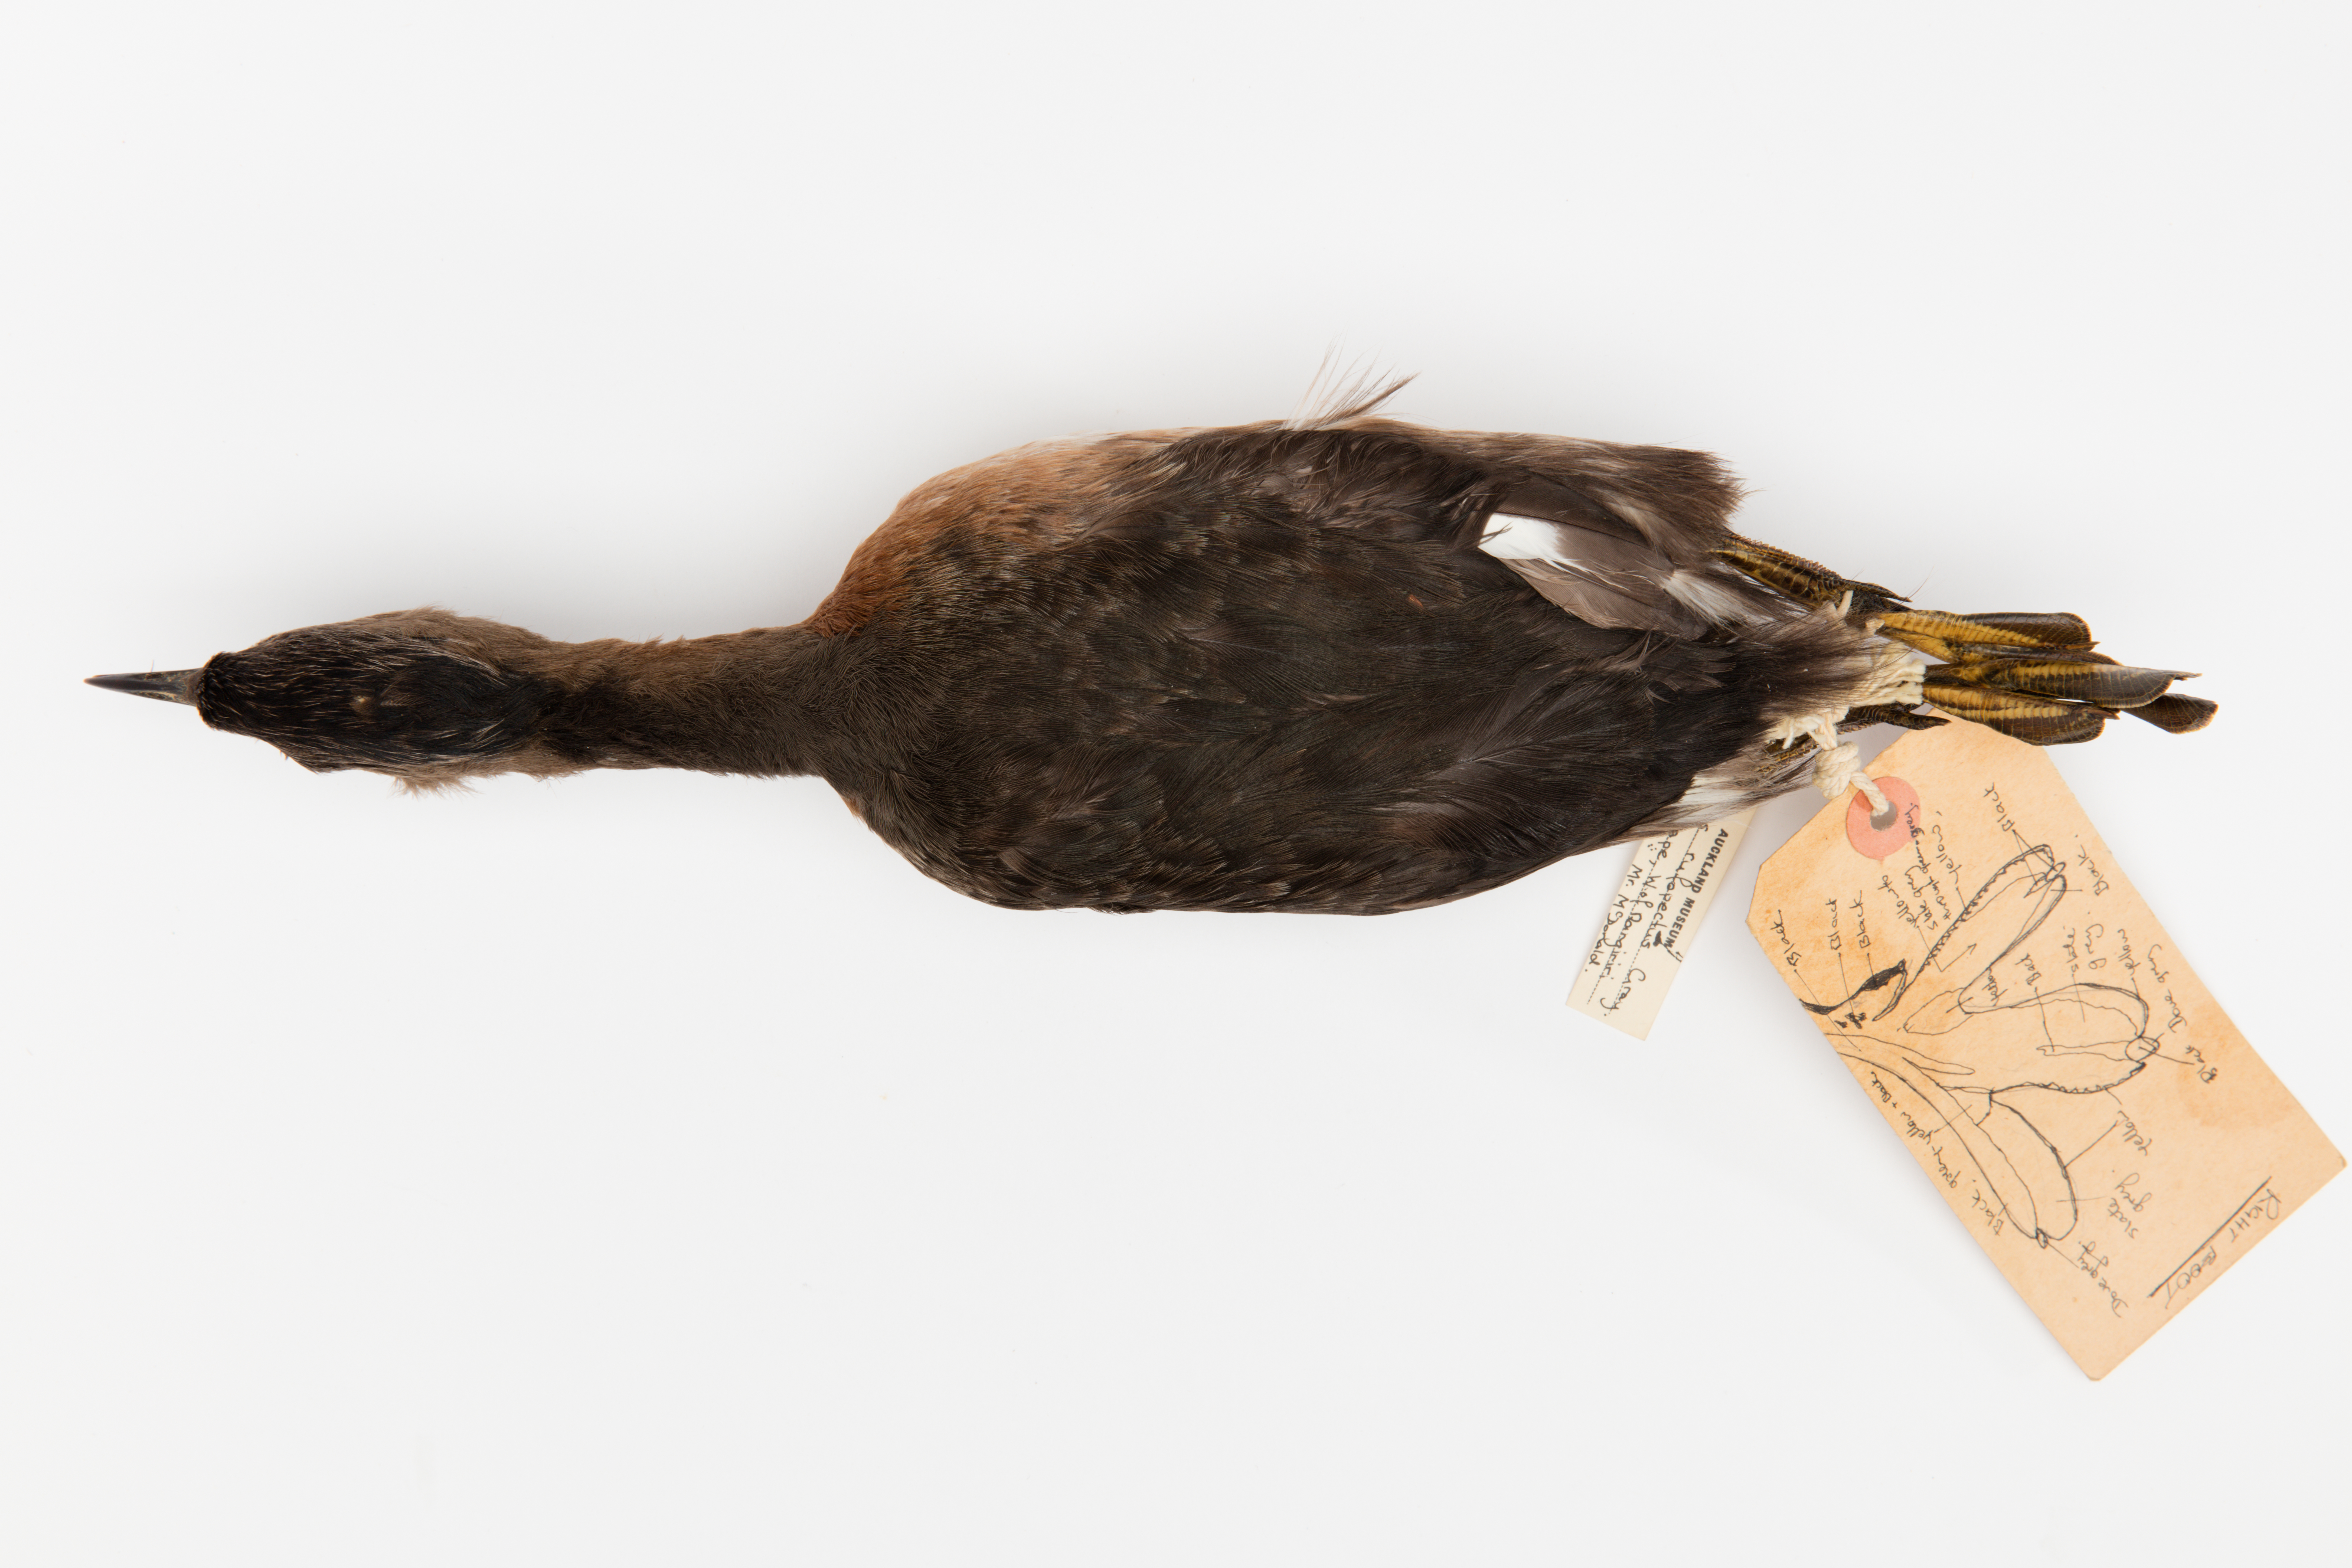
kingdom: Animalia
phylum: Chordata
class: Aves
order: Podicipediformes
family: Podicipedidae
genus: Poliocephalus
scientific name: Poliocephalus rufopectus
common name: New zealand grebe
